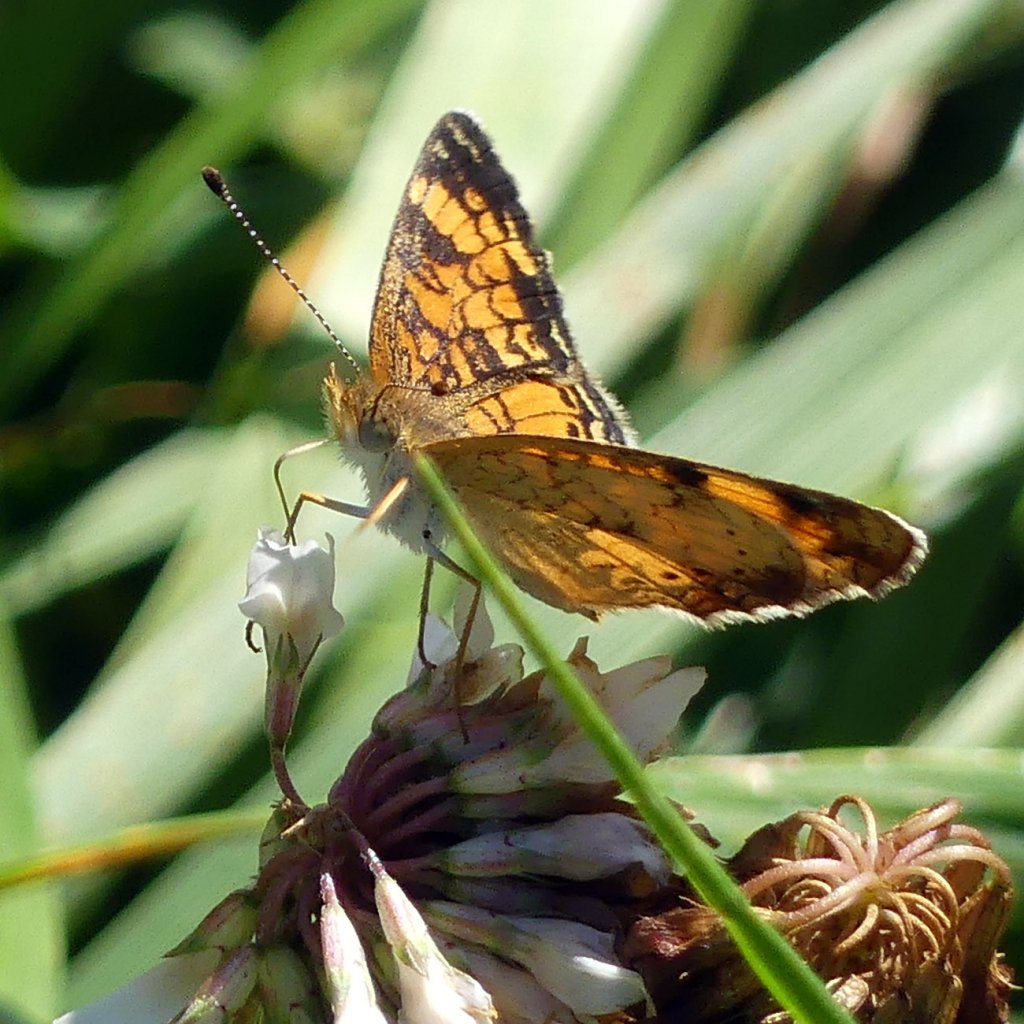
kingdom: Animalia
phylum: Arthropoda
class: Insecta
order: Lepidoptera
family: Nymphalidae
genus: Phyciodes
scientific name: Phyciodes tharos
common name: Pearl Crescent
